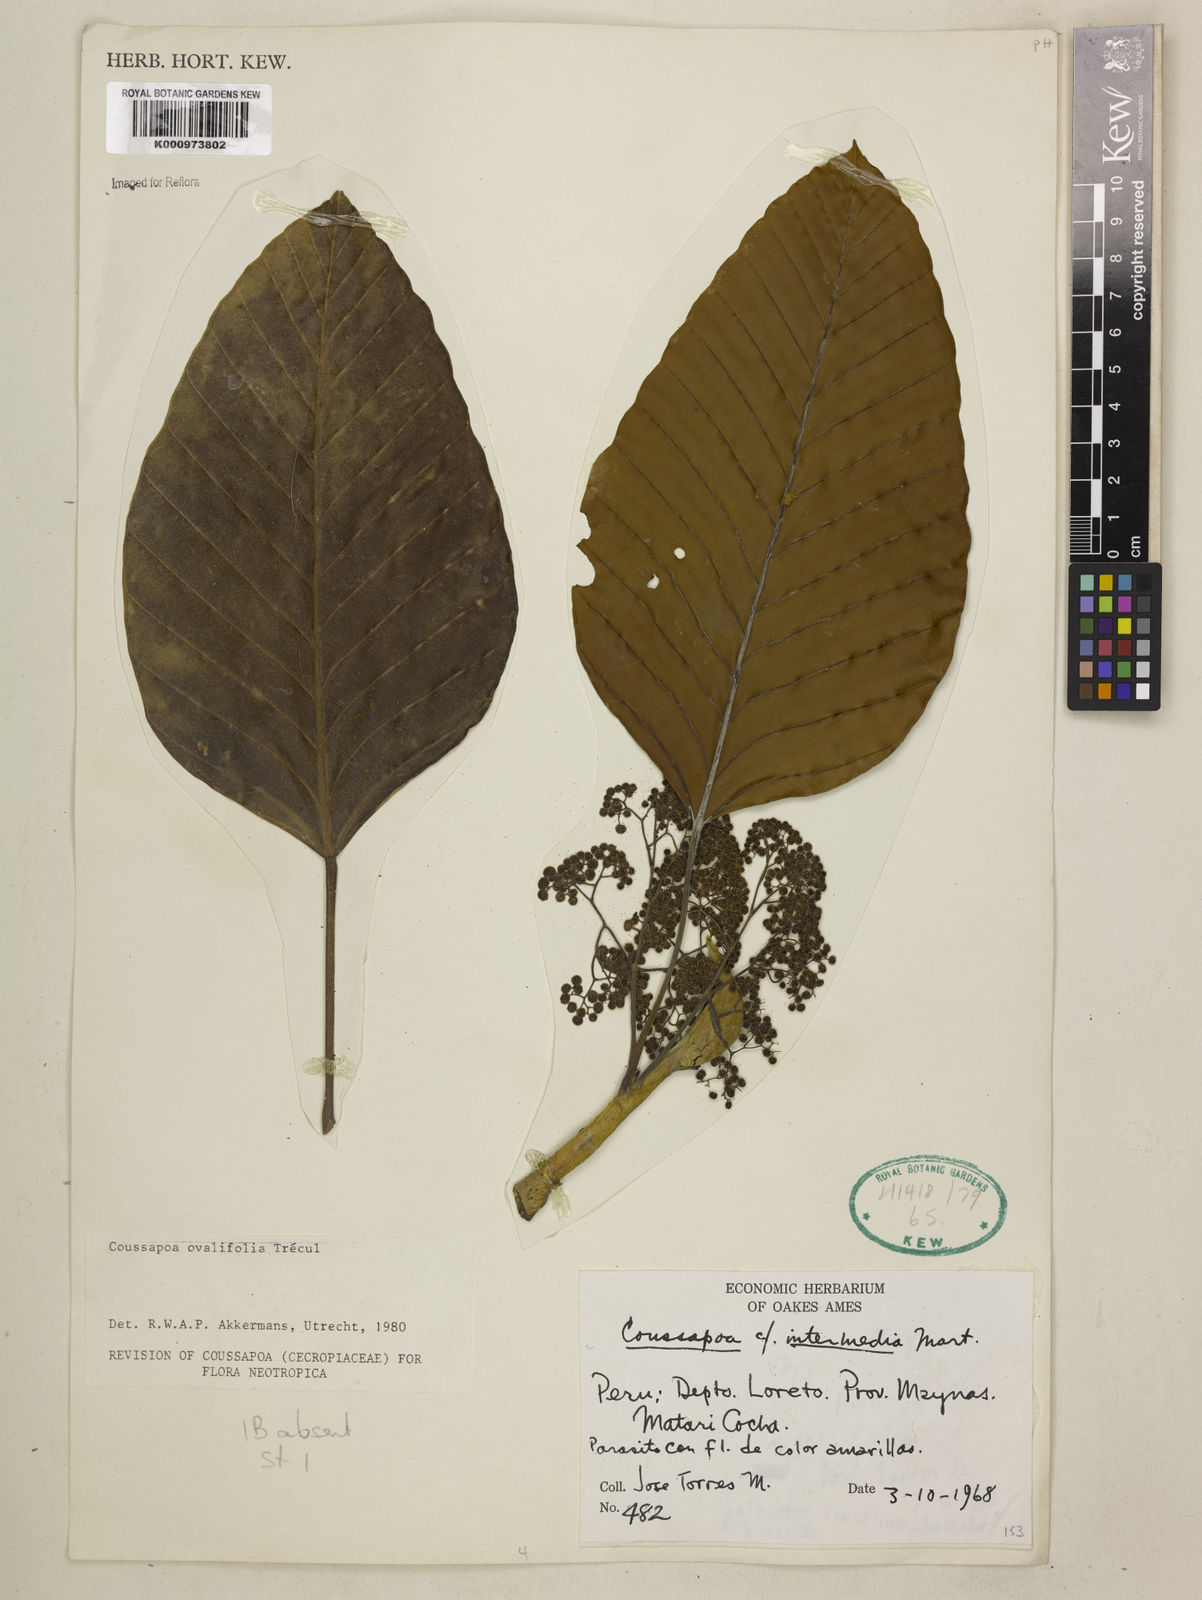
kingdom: Plantae
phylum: Tracheophyta
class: Magnoliopsida
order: Rosales
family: Urticaceae
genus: Coussapoa
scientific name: Coussapoa
